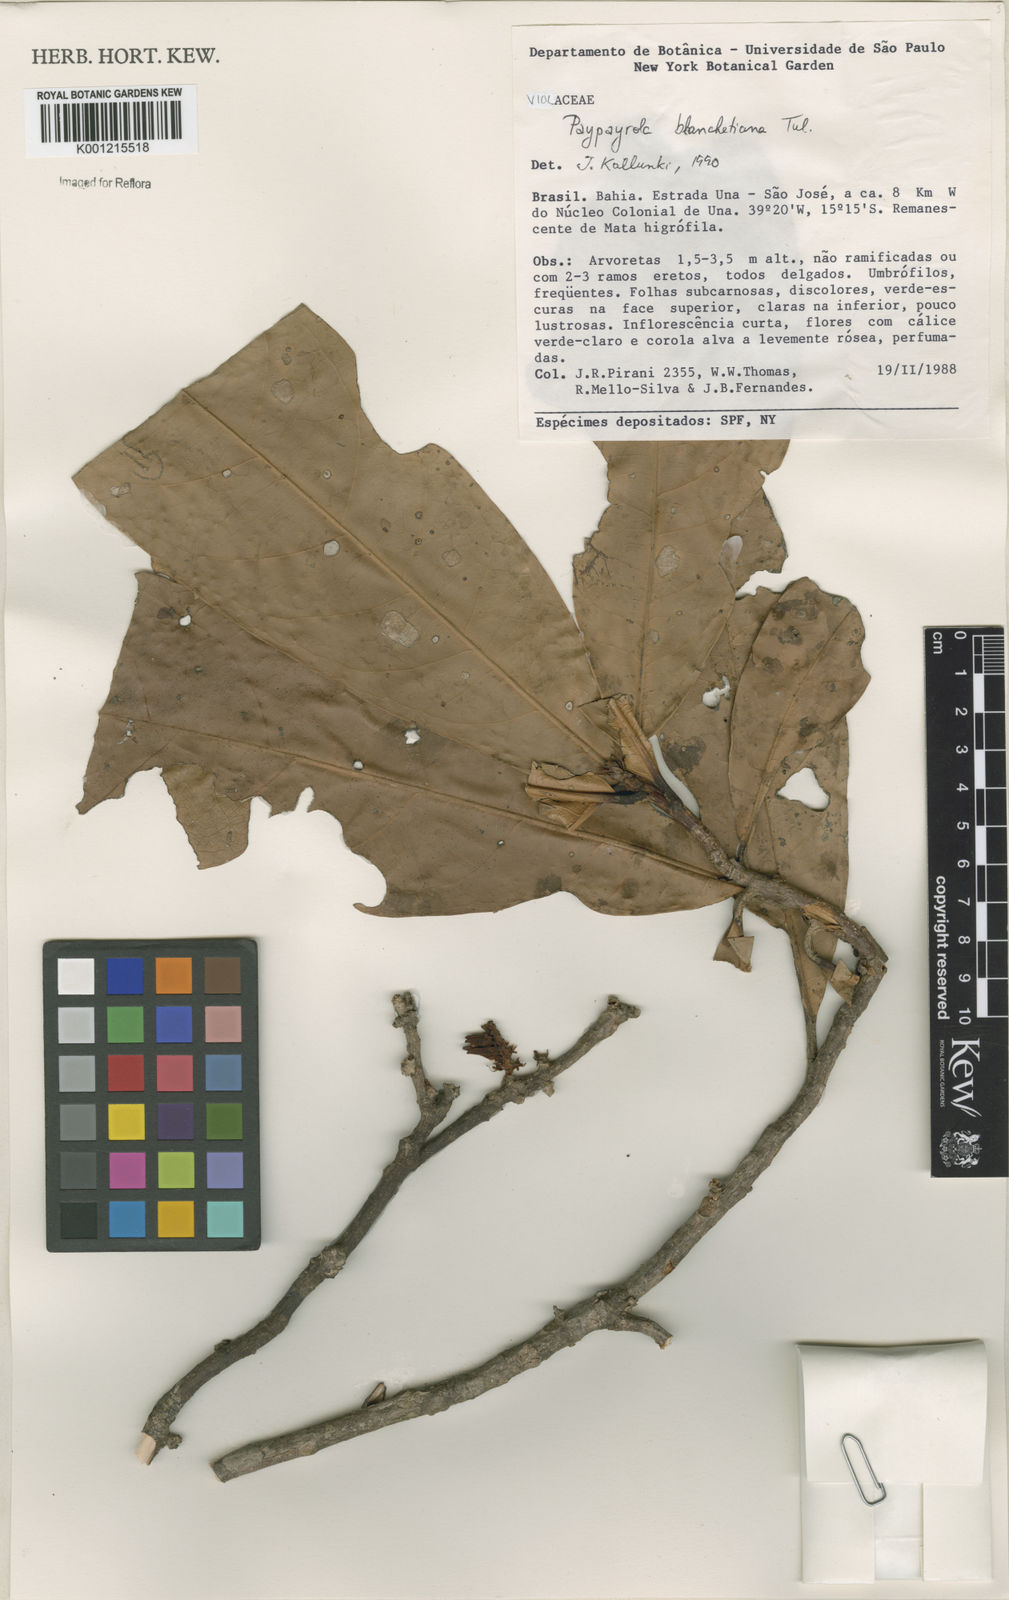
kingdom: Plantae
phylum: Tracheophyta
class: Magnoliopsida
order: Malpighiales
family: Violaceae
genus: Paypayrola
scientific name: Paypayrola blanchetiana
